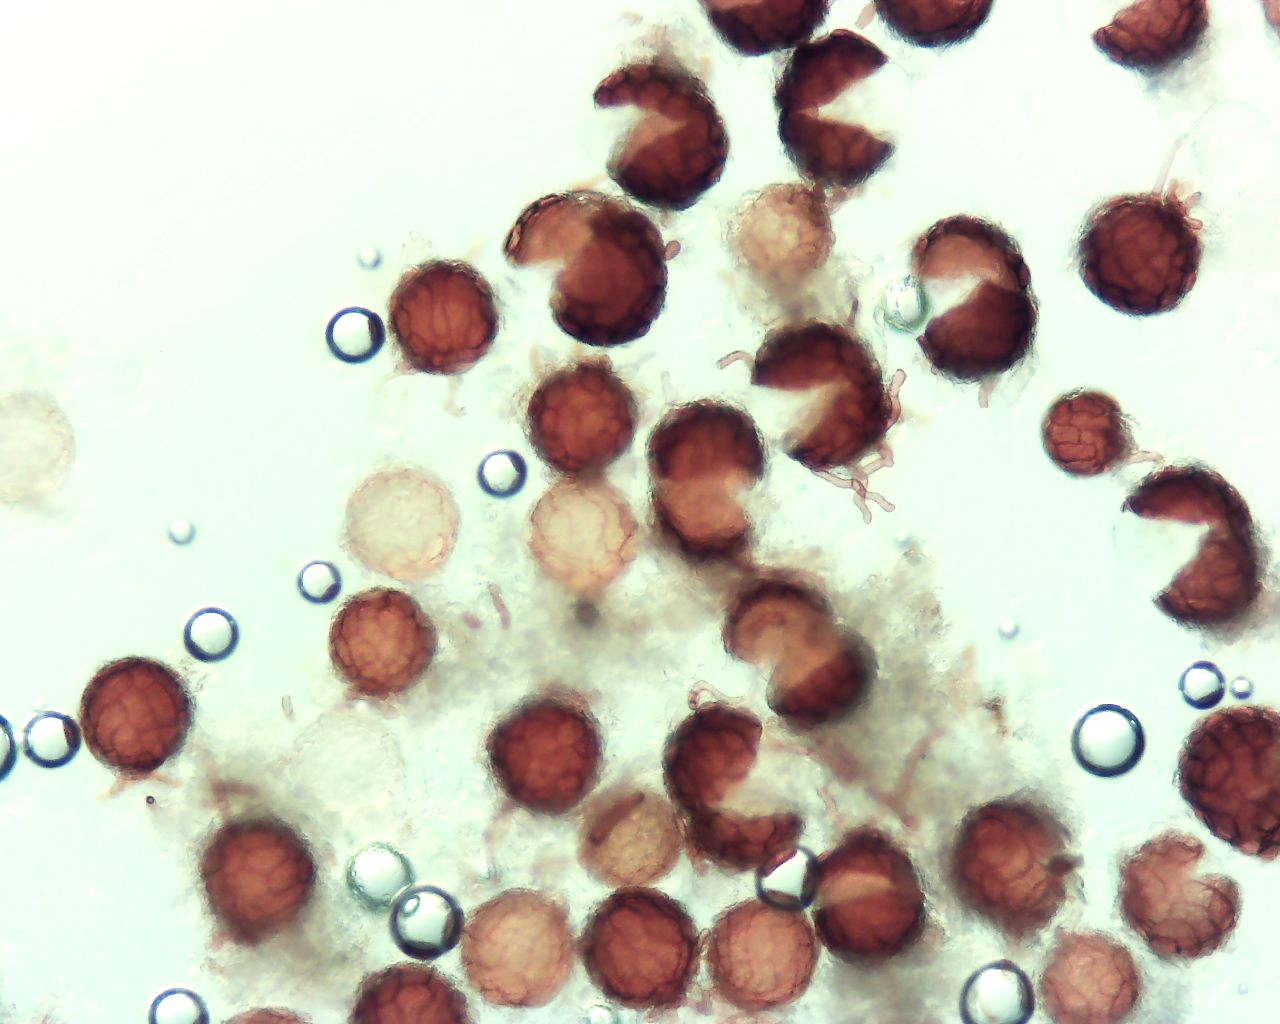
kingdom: Fungi
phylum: Ascomycota
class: Leotiomycetes
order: Helotiales
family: Erysiphaceae
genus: Podosphaera
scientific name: Podosphaera erigerontis-canadensis
